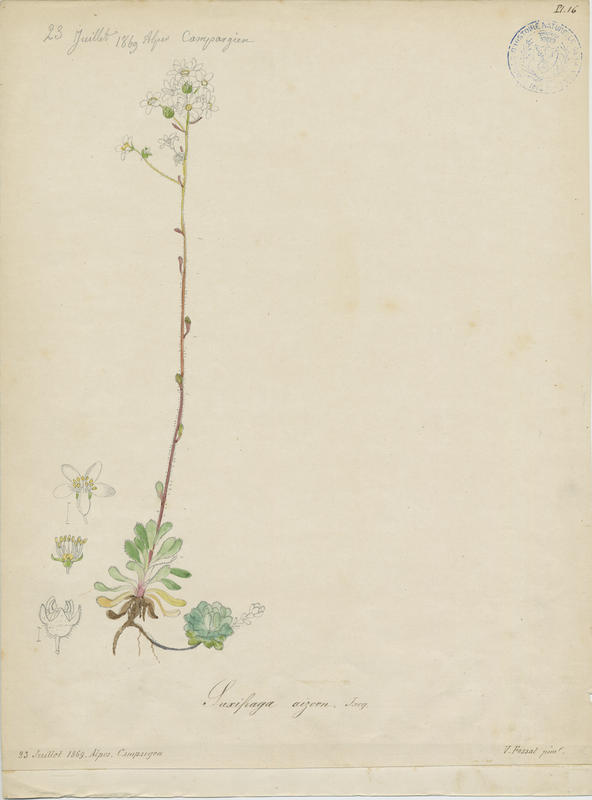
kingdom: Plantae
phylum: Tracheophyta
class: Magnoliopsida
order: Saxifragales
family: Saxifragaceae
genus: Saxifraga
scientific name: Saxifraga paniculata
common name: Livelong saxifrage
